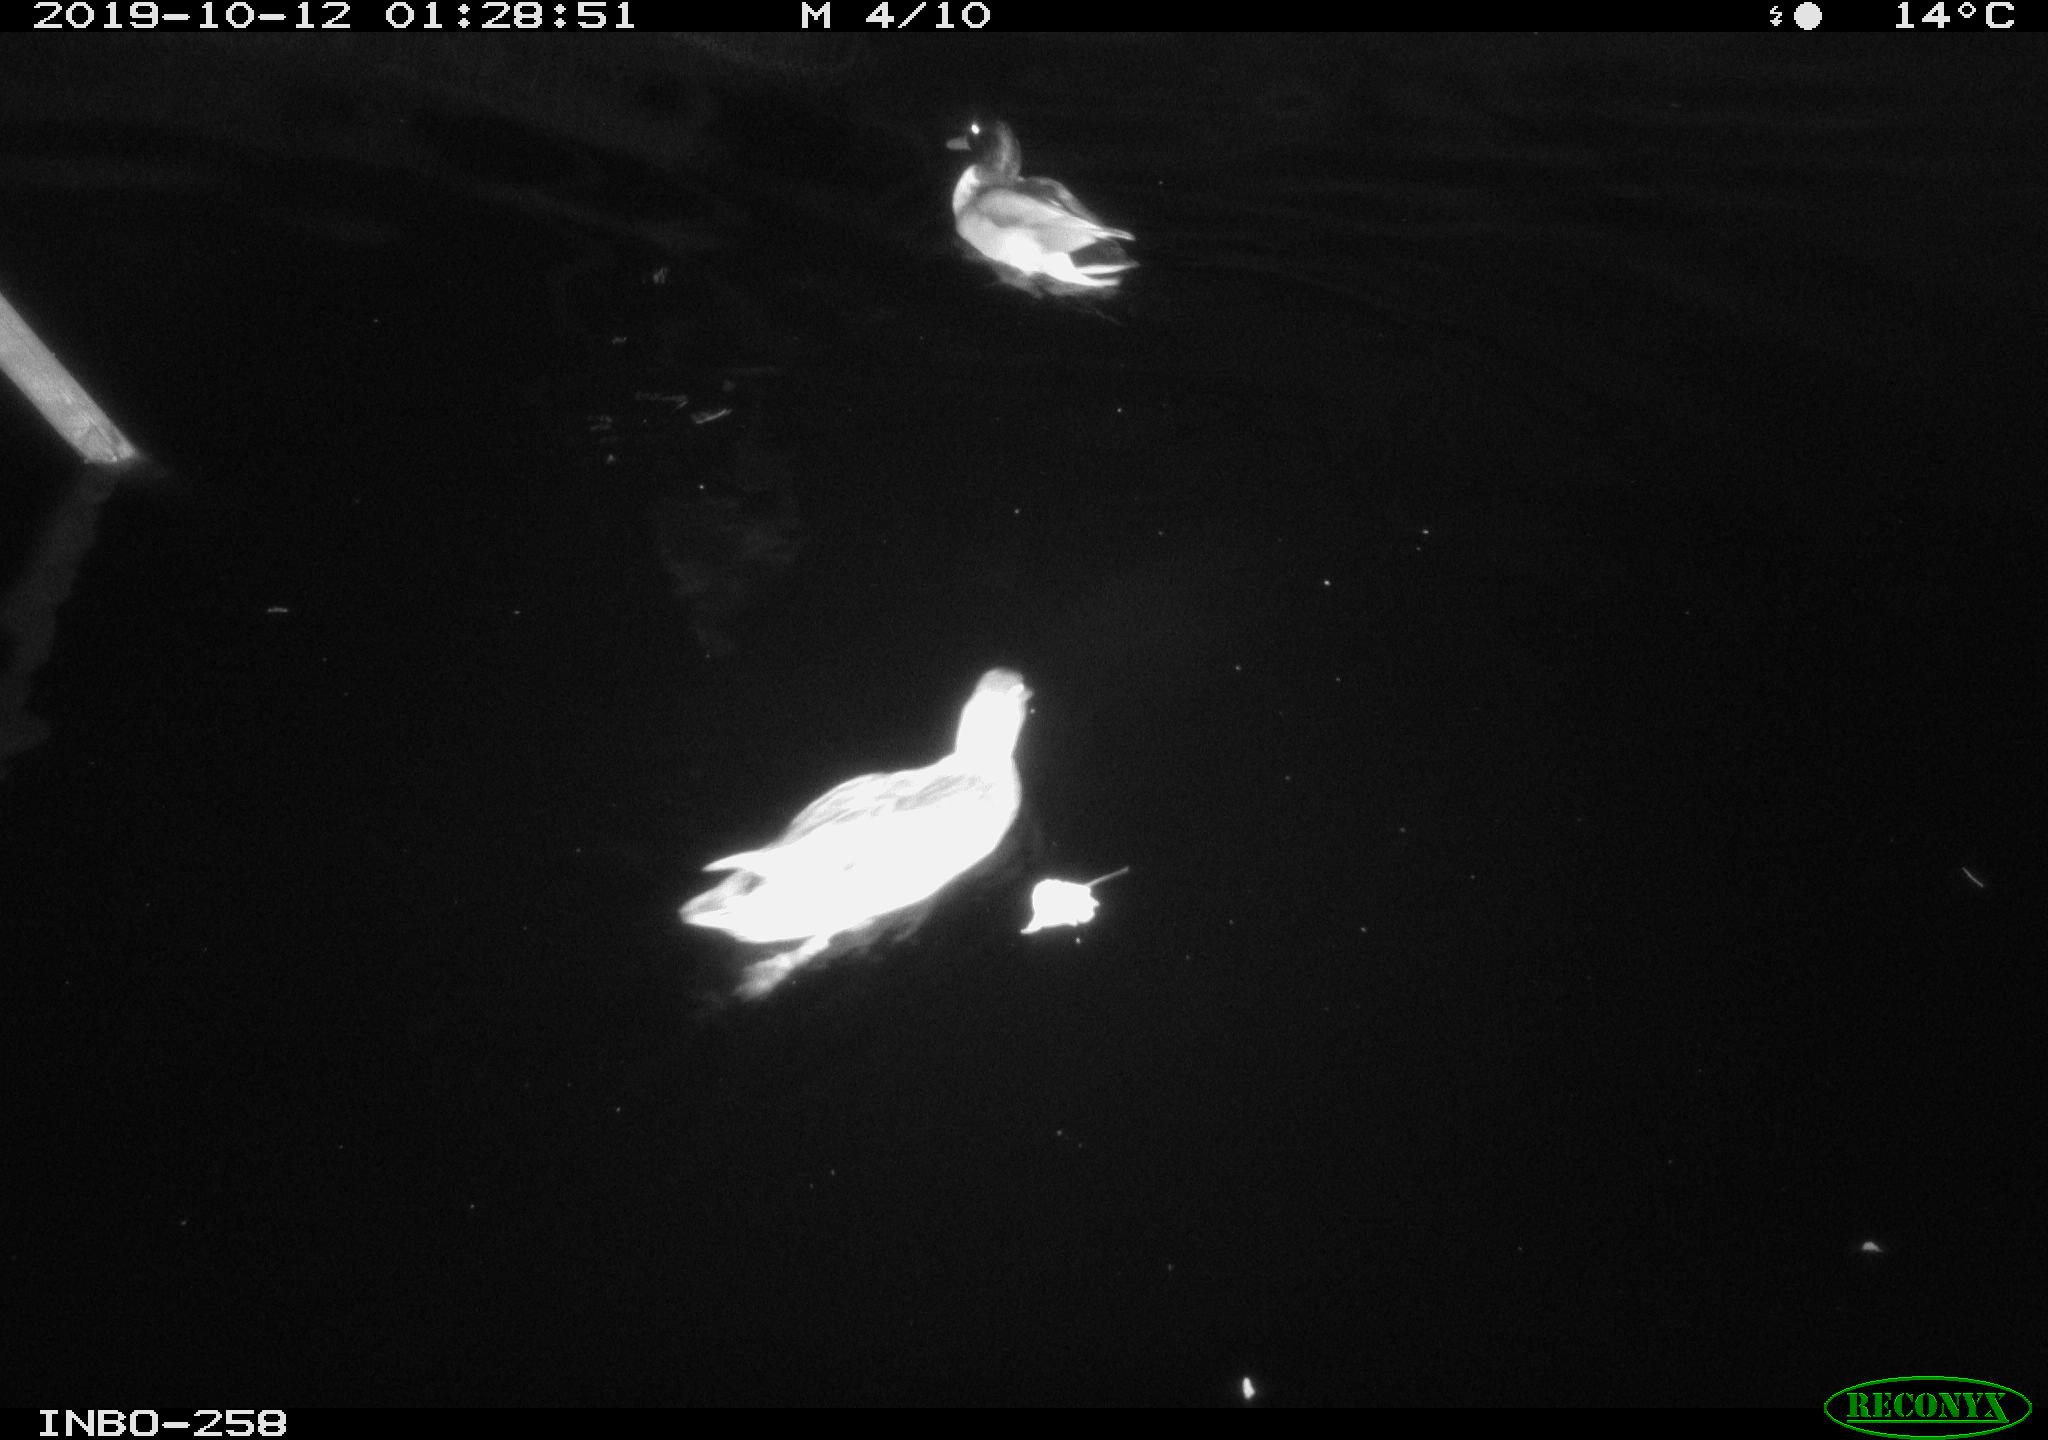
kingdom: Animalia
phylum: Chordata
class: Aves
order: Anseriformes
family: Anatidae
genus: Anas
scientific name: Anas platyrhynchos
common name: Mallard
